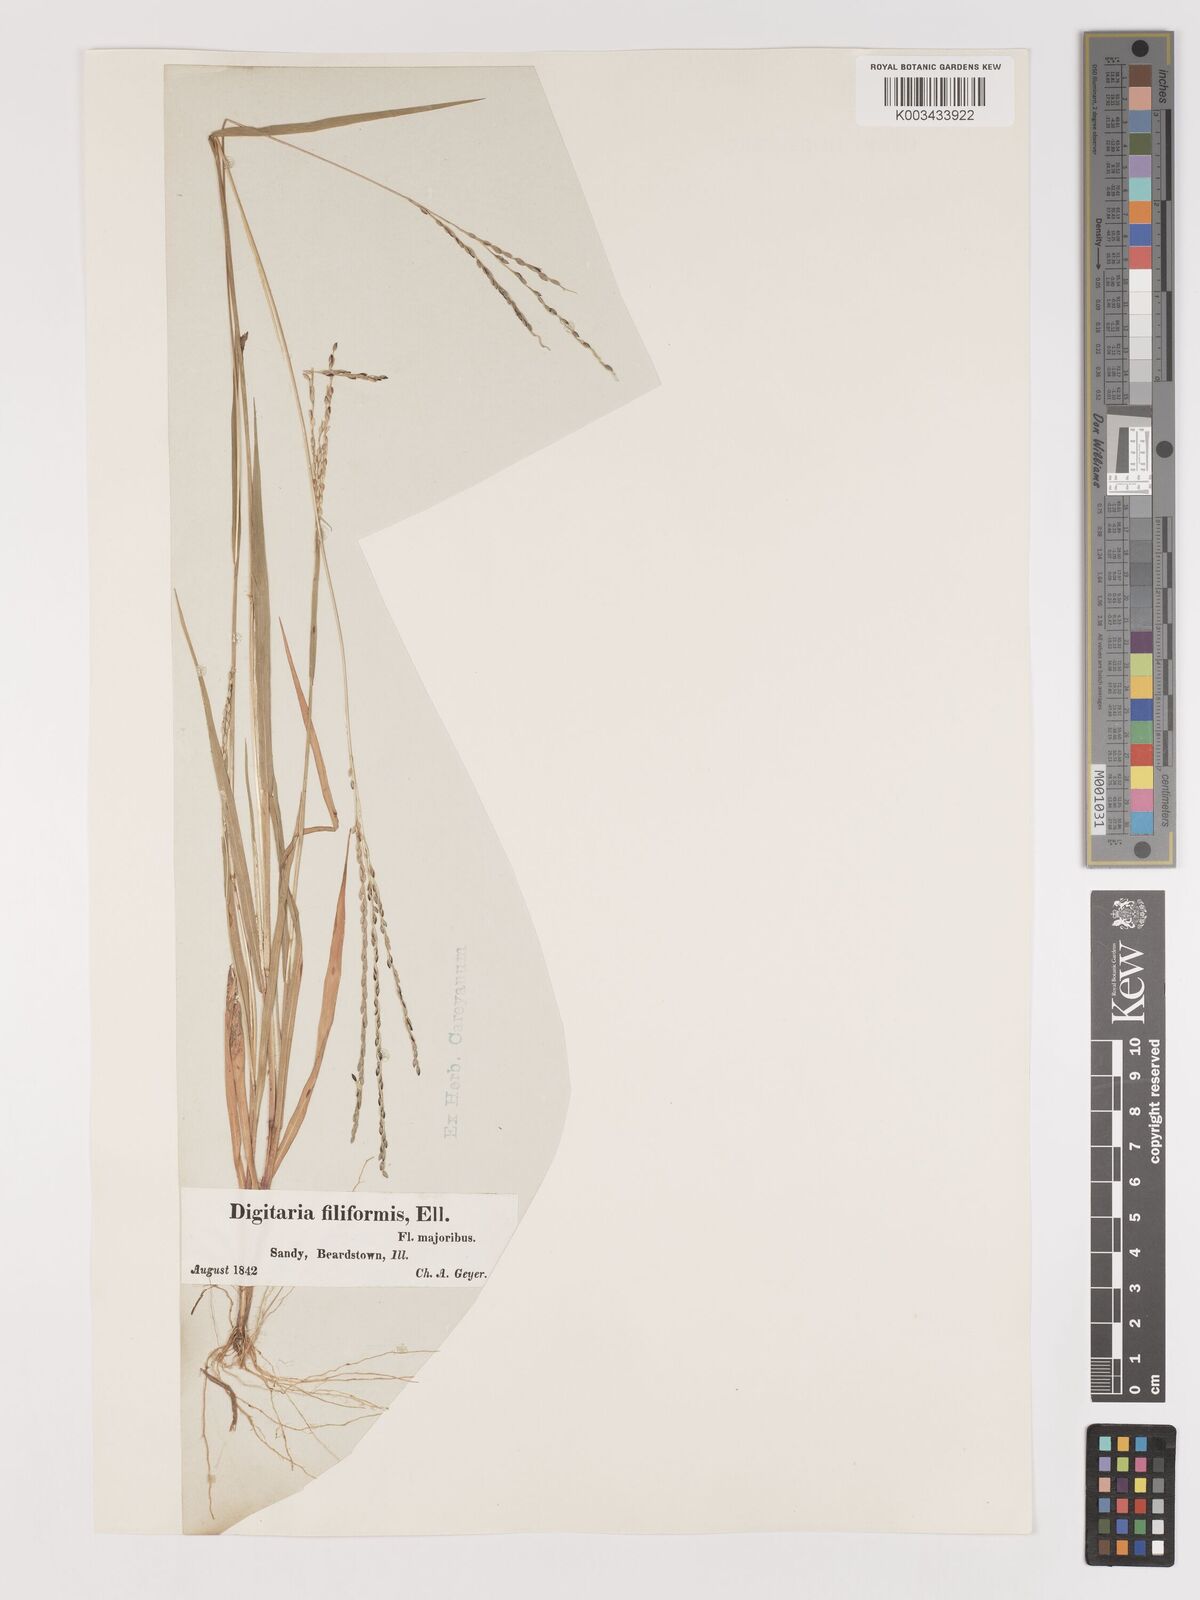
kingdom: Plantae
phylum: Tracheophyta
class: Liliopsida
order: Poales
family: Poaceae
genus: Digitaria
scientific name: Digitaria filiformis
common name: Slender crabgrass
